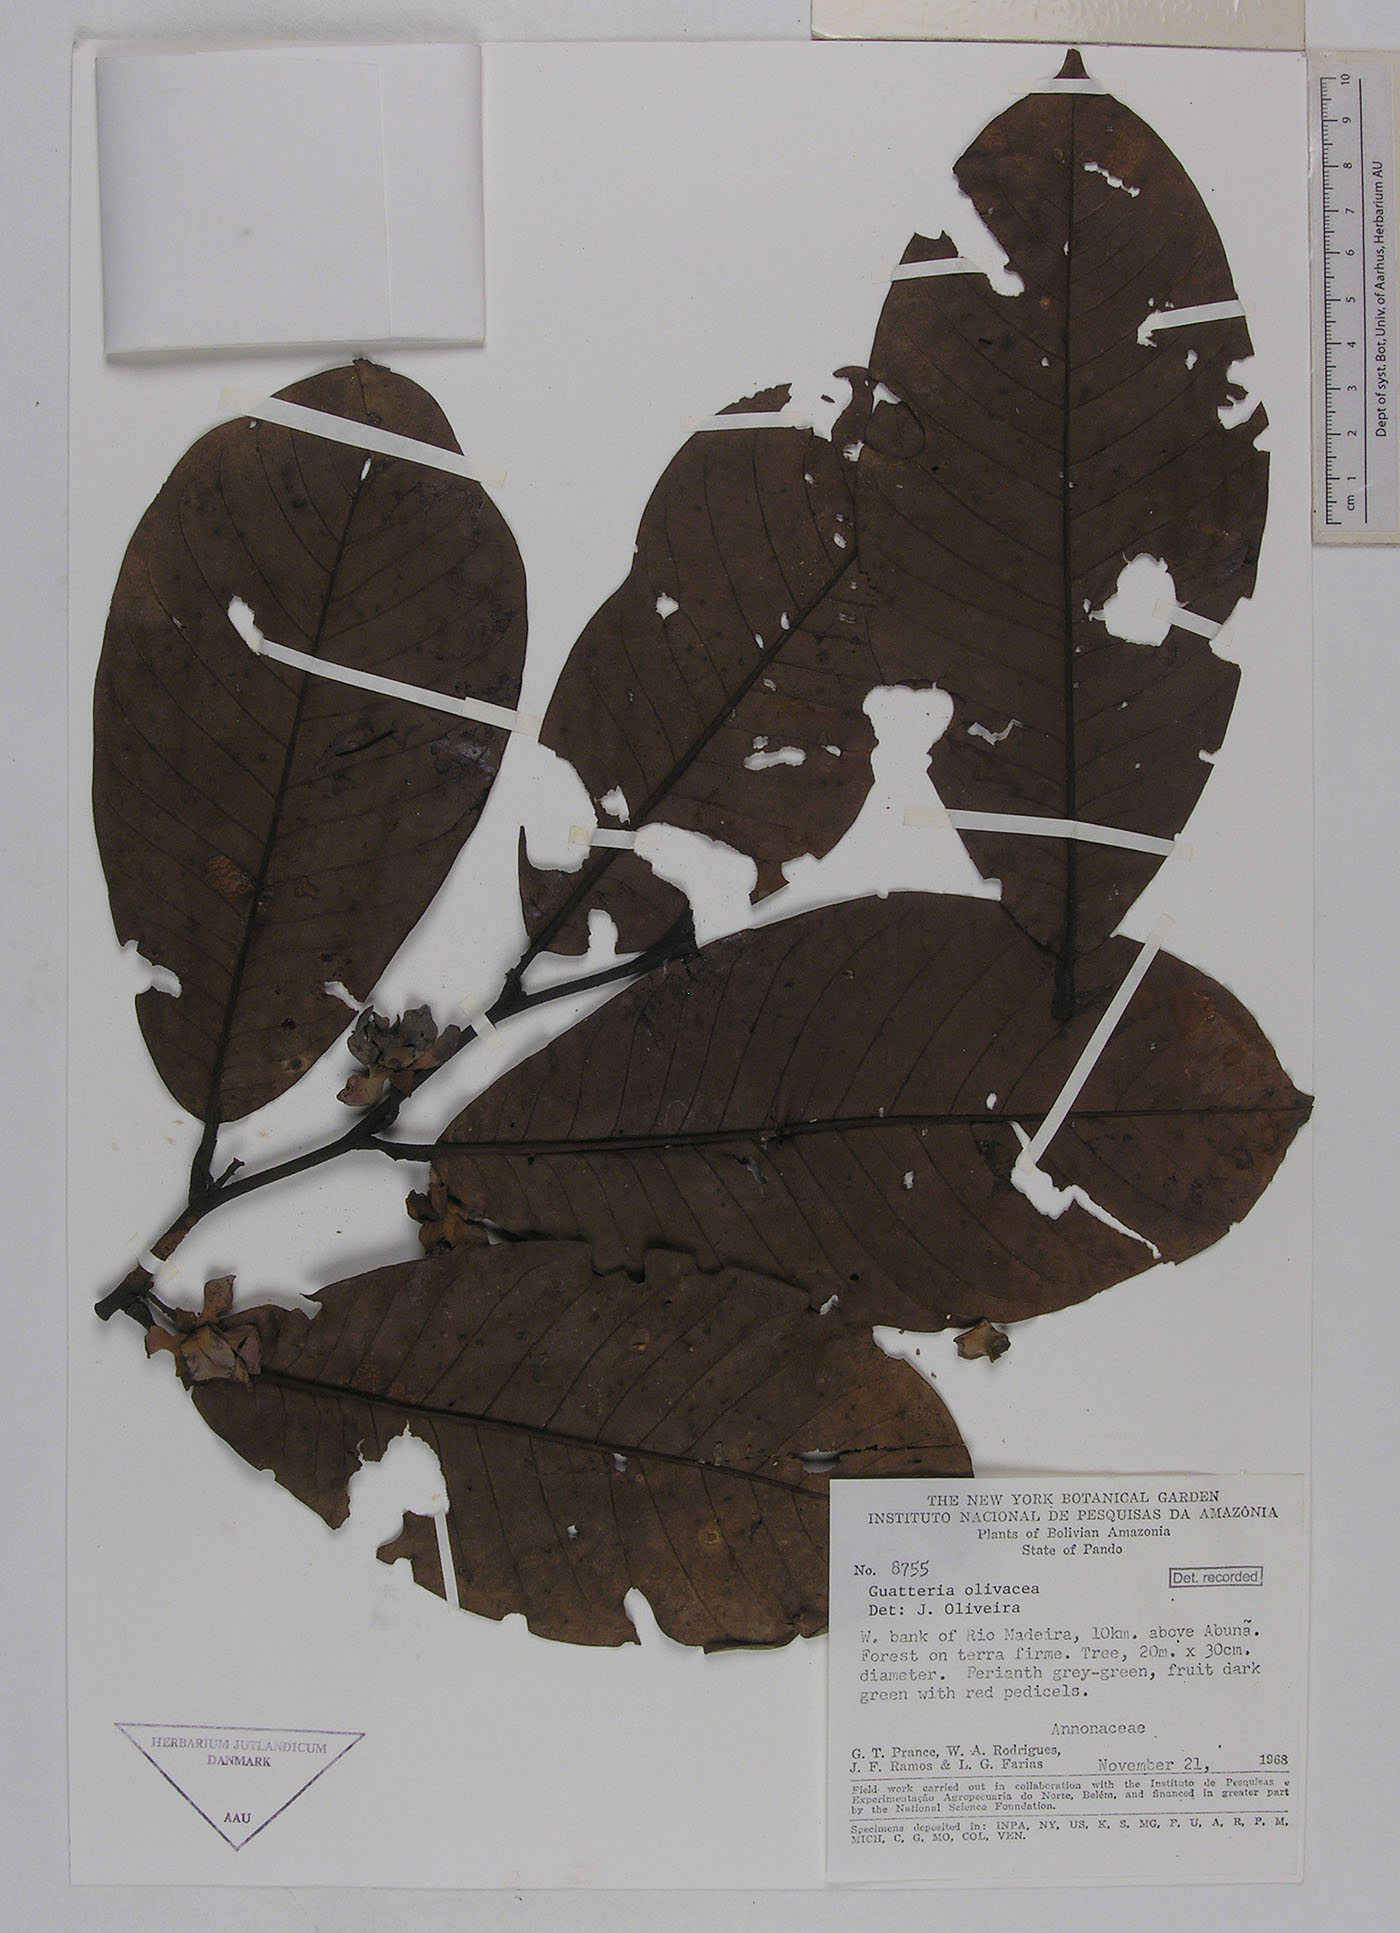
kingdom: Plantae
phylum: Tracheophyta
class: Magnoliopsida
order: Magnoliales
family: Annonaceae
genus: Guatteria
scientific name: Guatteria punctata
